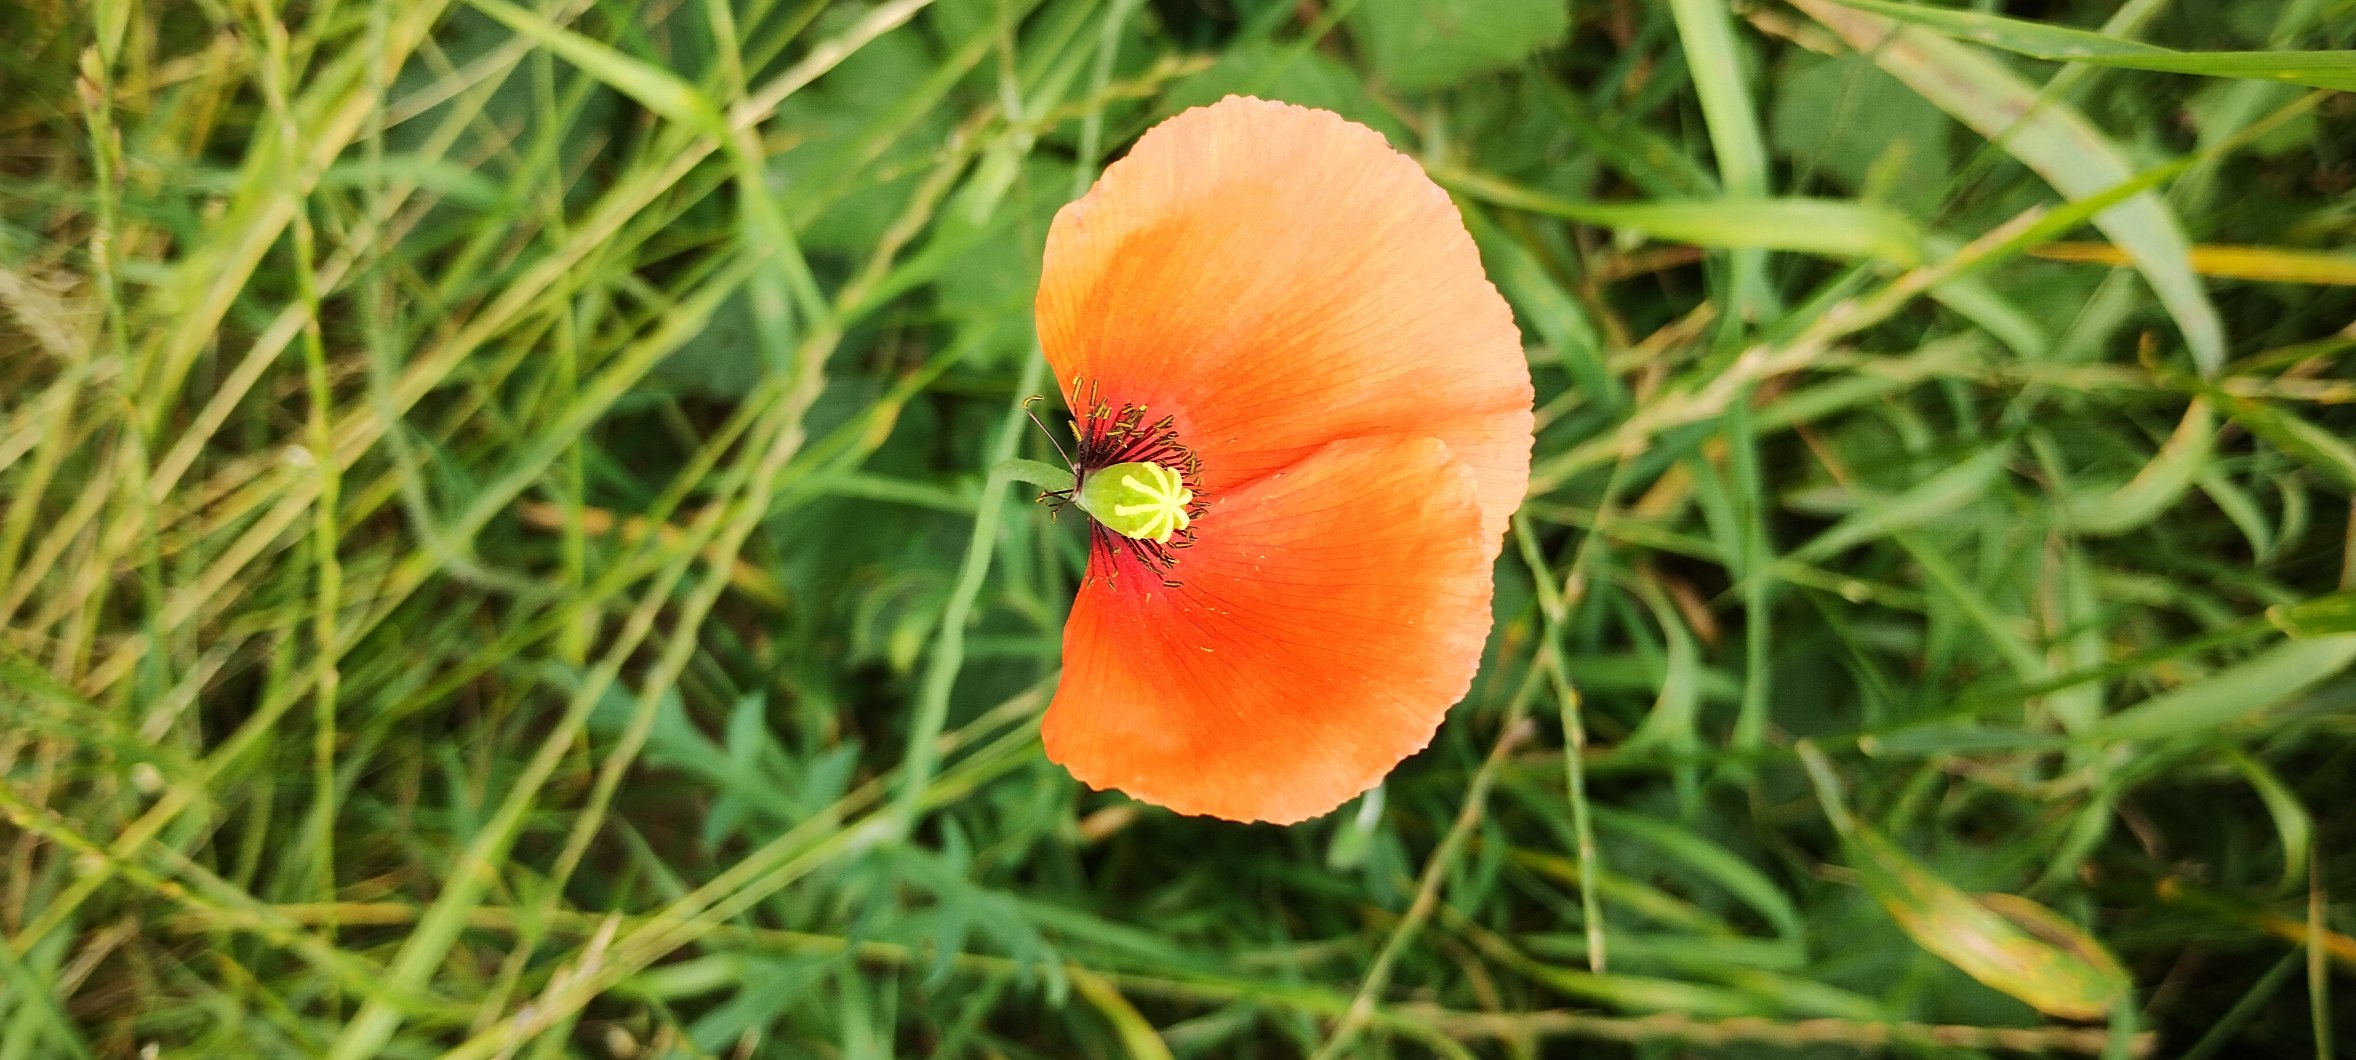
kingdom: Plantae
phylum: Tracheophyta
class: Magnoliopsida
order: Ranunculales
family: Papaveraceae
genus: Papaver
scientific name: Papaver dubium
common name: Gærde-valmue
